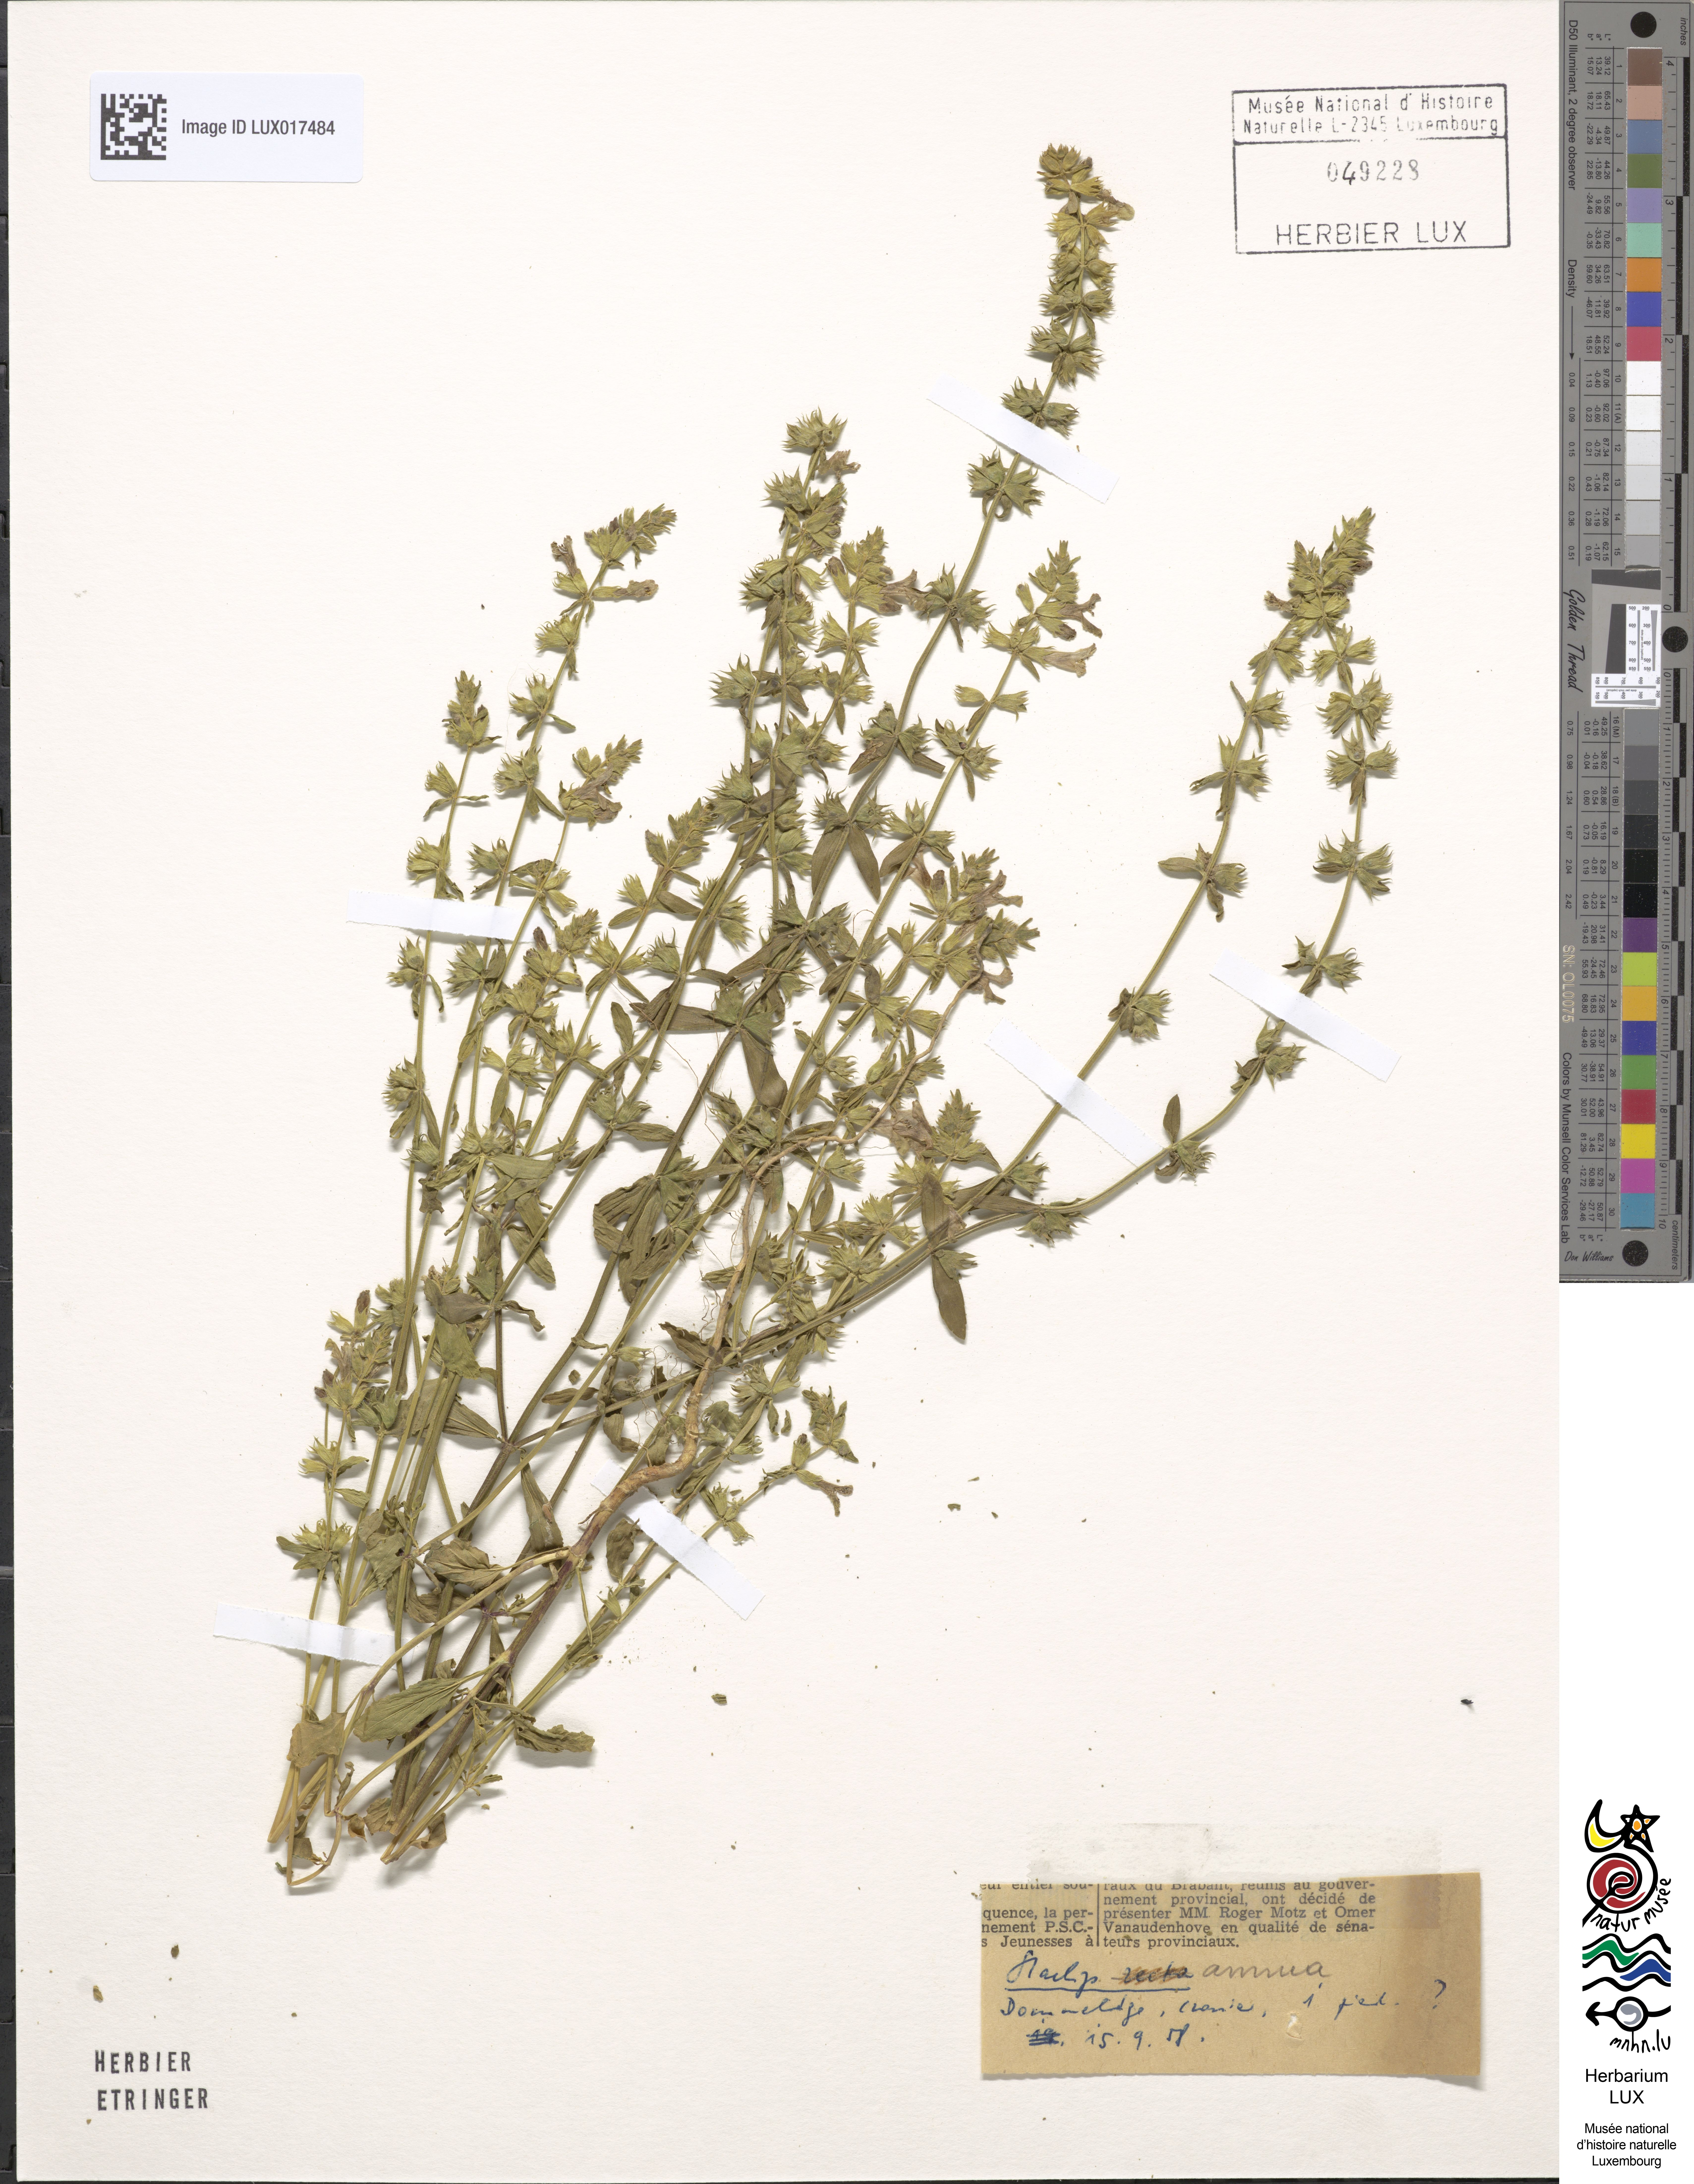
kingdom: Plantae
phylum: Tracheophyta
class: Magnoliopsida
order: Lamiales
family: Lamiaceae
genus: Stachys
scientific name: Stachys annua
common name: Annual yellow-woundwort
